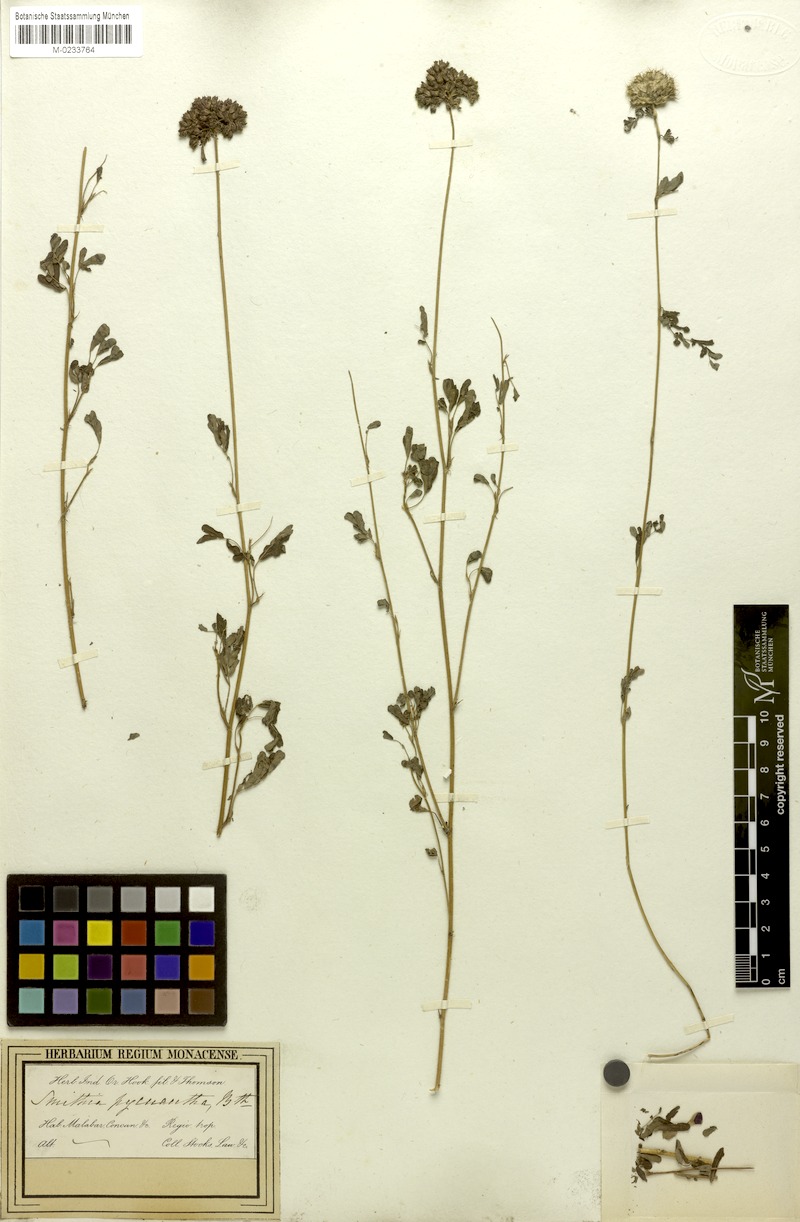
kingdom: Plantae
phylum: Tracheophyta
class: Magnoliopsida
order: Fabales
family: Fabaceae
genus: Smithia
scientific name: Smithia pycnantha
